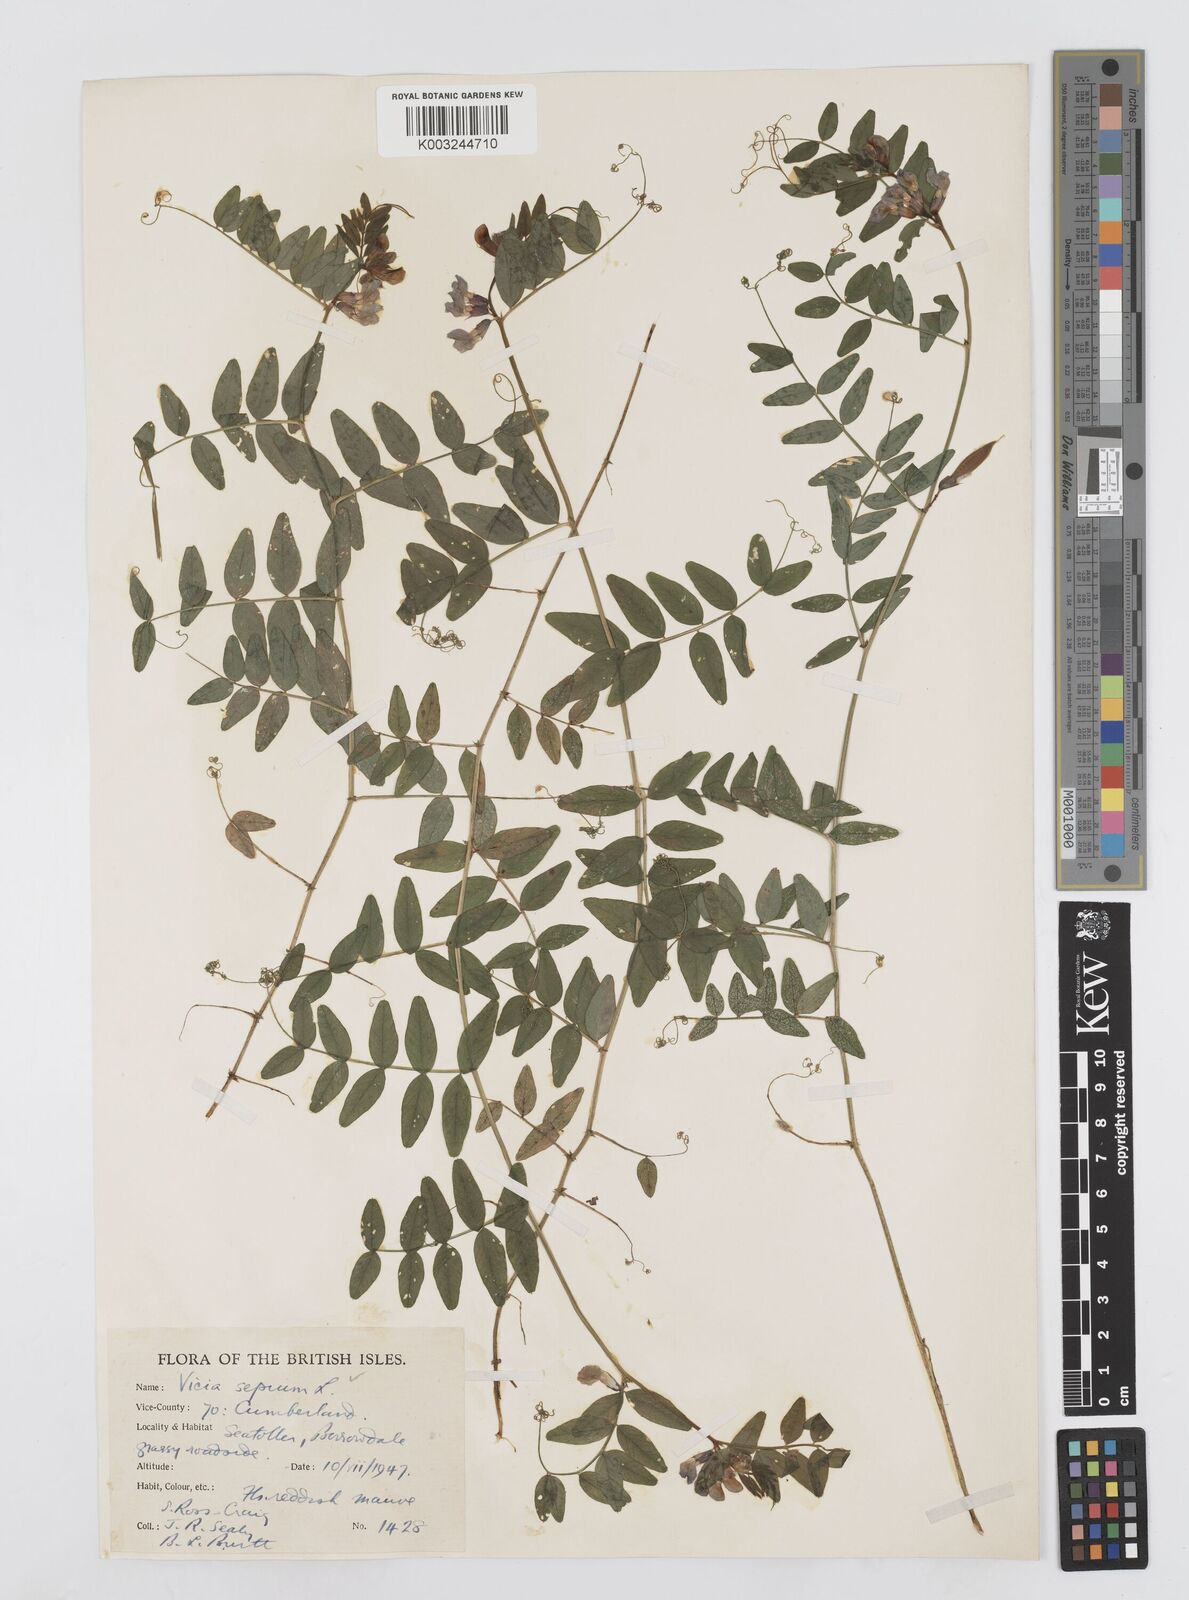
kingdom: Plantae
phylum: Tracheophyta
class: Magnoliopsida
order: Fabales
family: Fabaceae
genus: Vicia
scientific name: Vicia sepium
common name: Bush vetch
